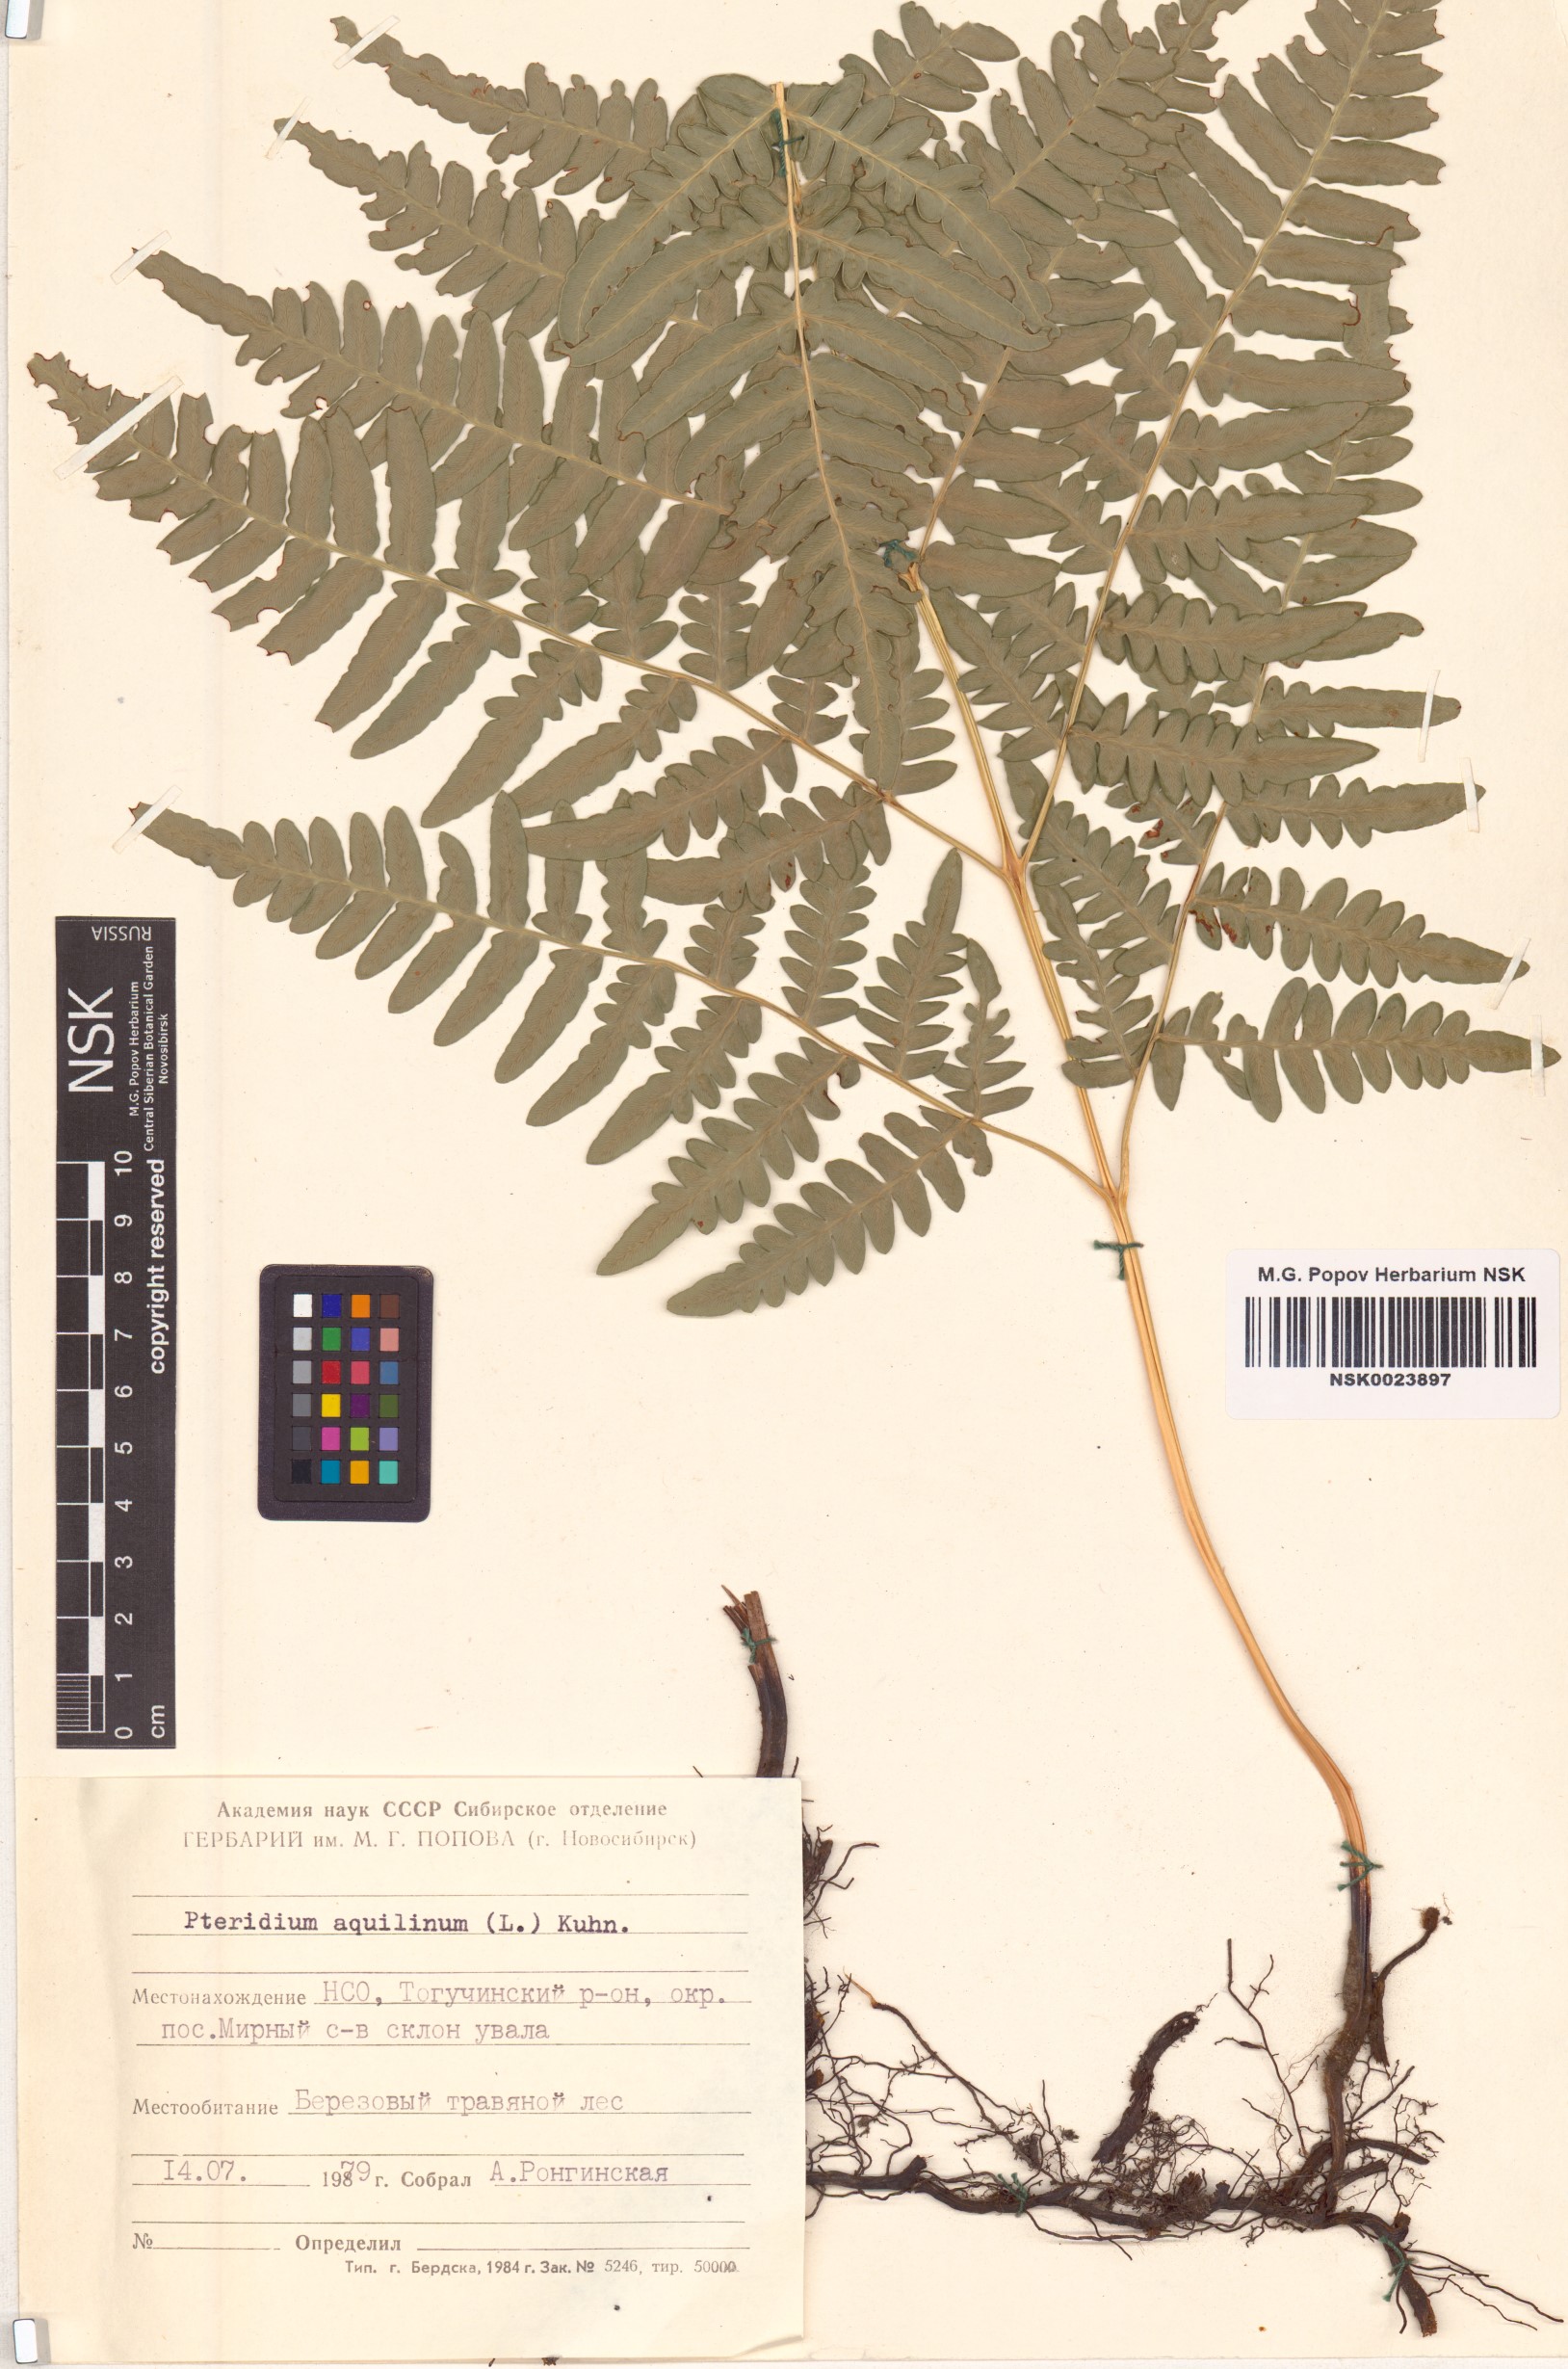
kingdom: Plantae
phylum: Tracheophyta
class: Polypodiopsida
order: Polypodiales
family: Dennstaedtiaceae
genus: Pteridium
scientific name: Pteridium aquilinum
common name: Bracken
